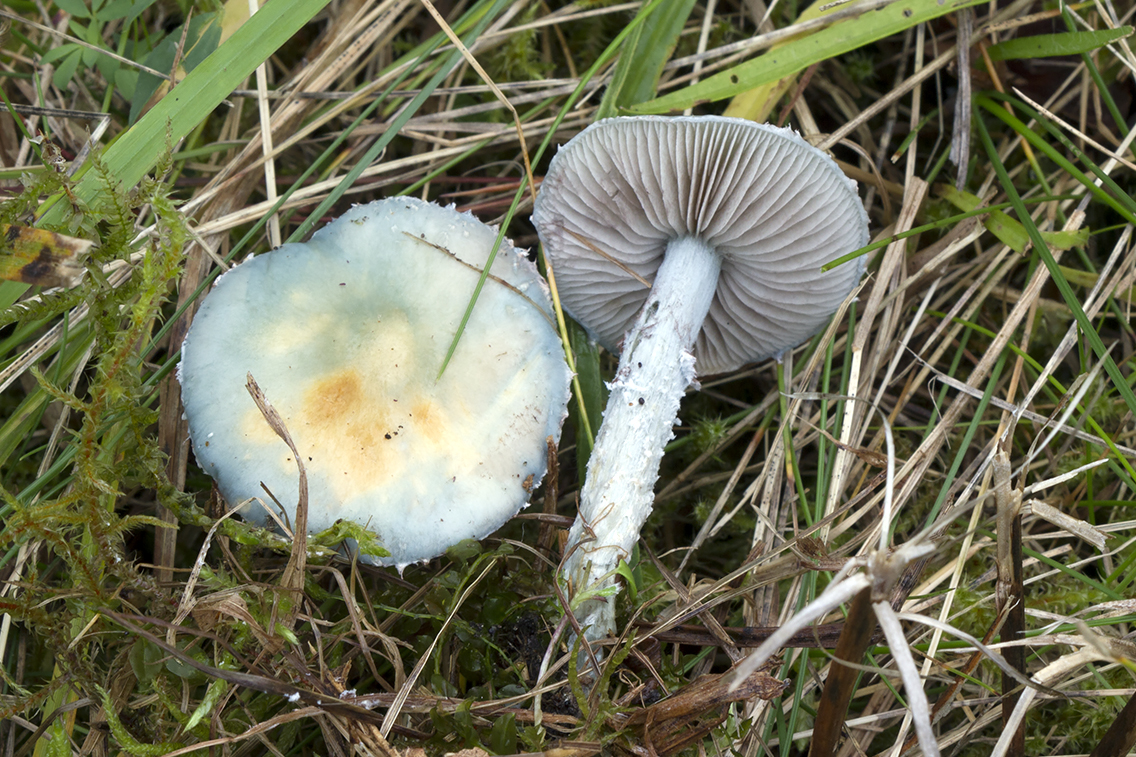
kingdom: Fungi
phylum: Basidiomycota
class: Agaricomycetes
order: Agaricales
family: Strophariaceae
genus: Stropharia
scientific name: Stropharia cyanea
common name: blågrøn bredblad
